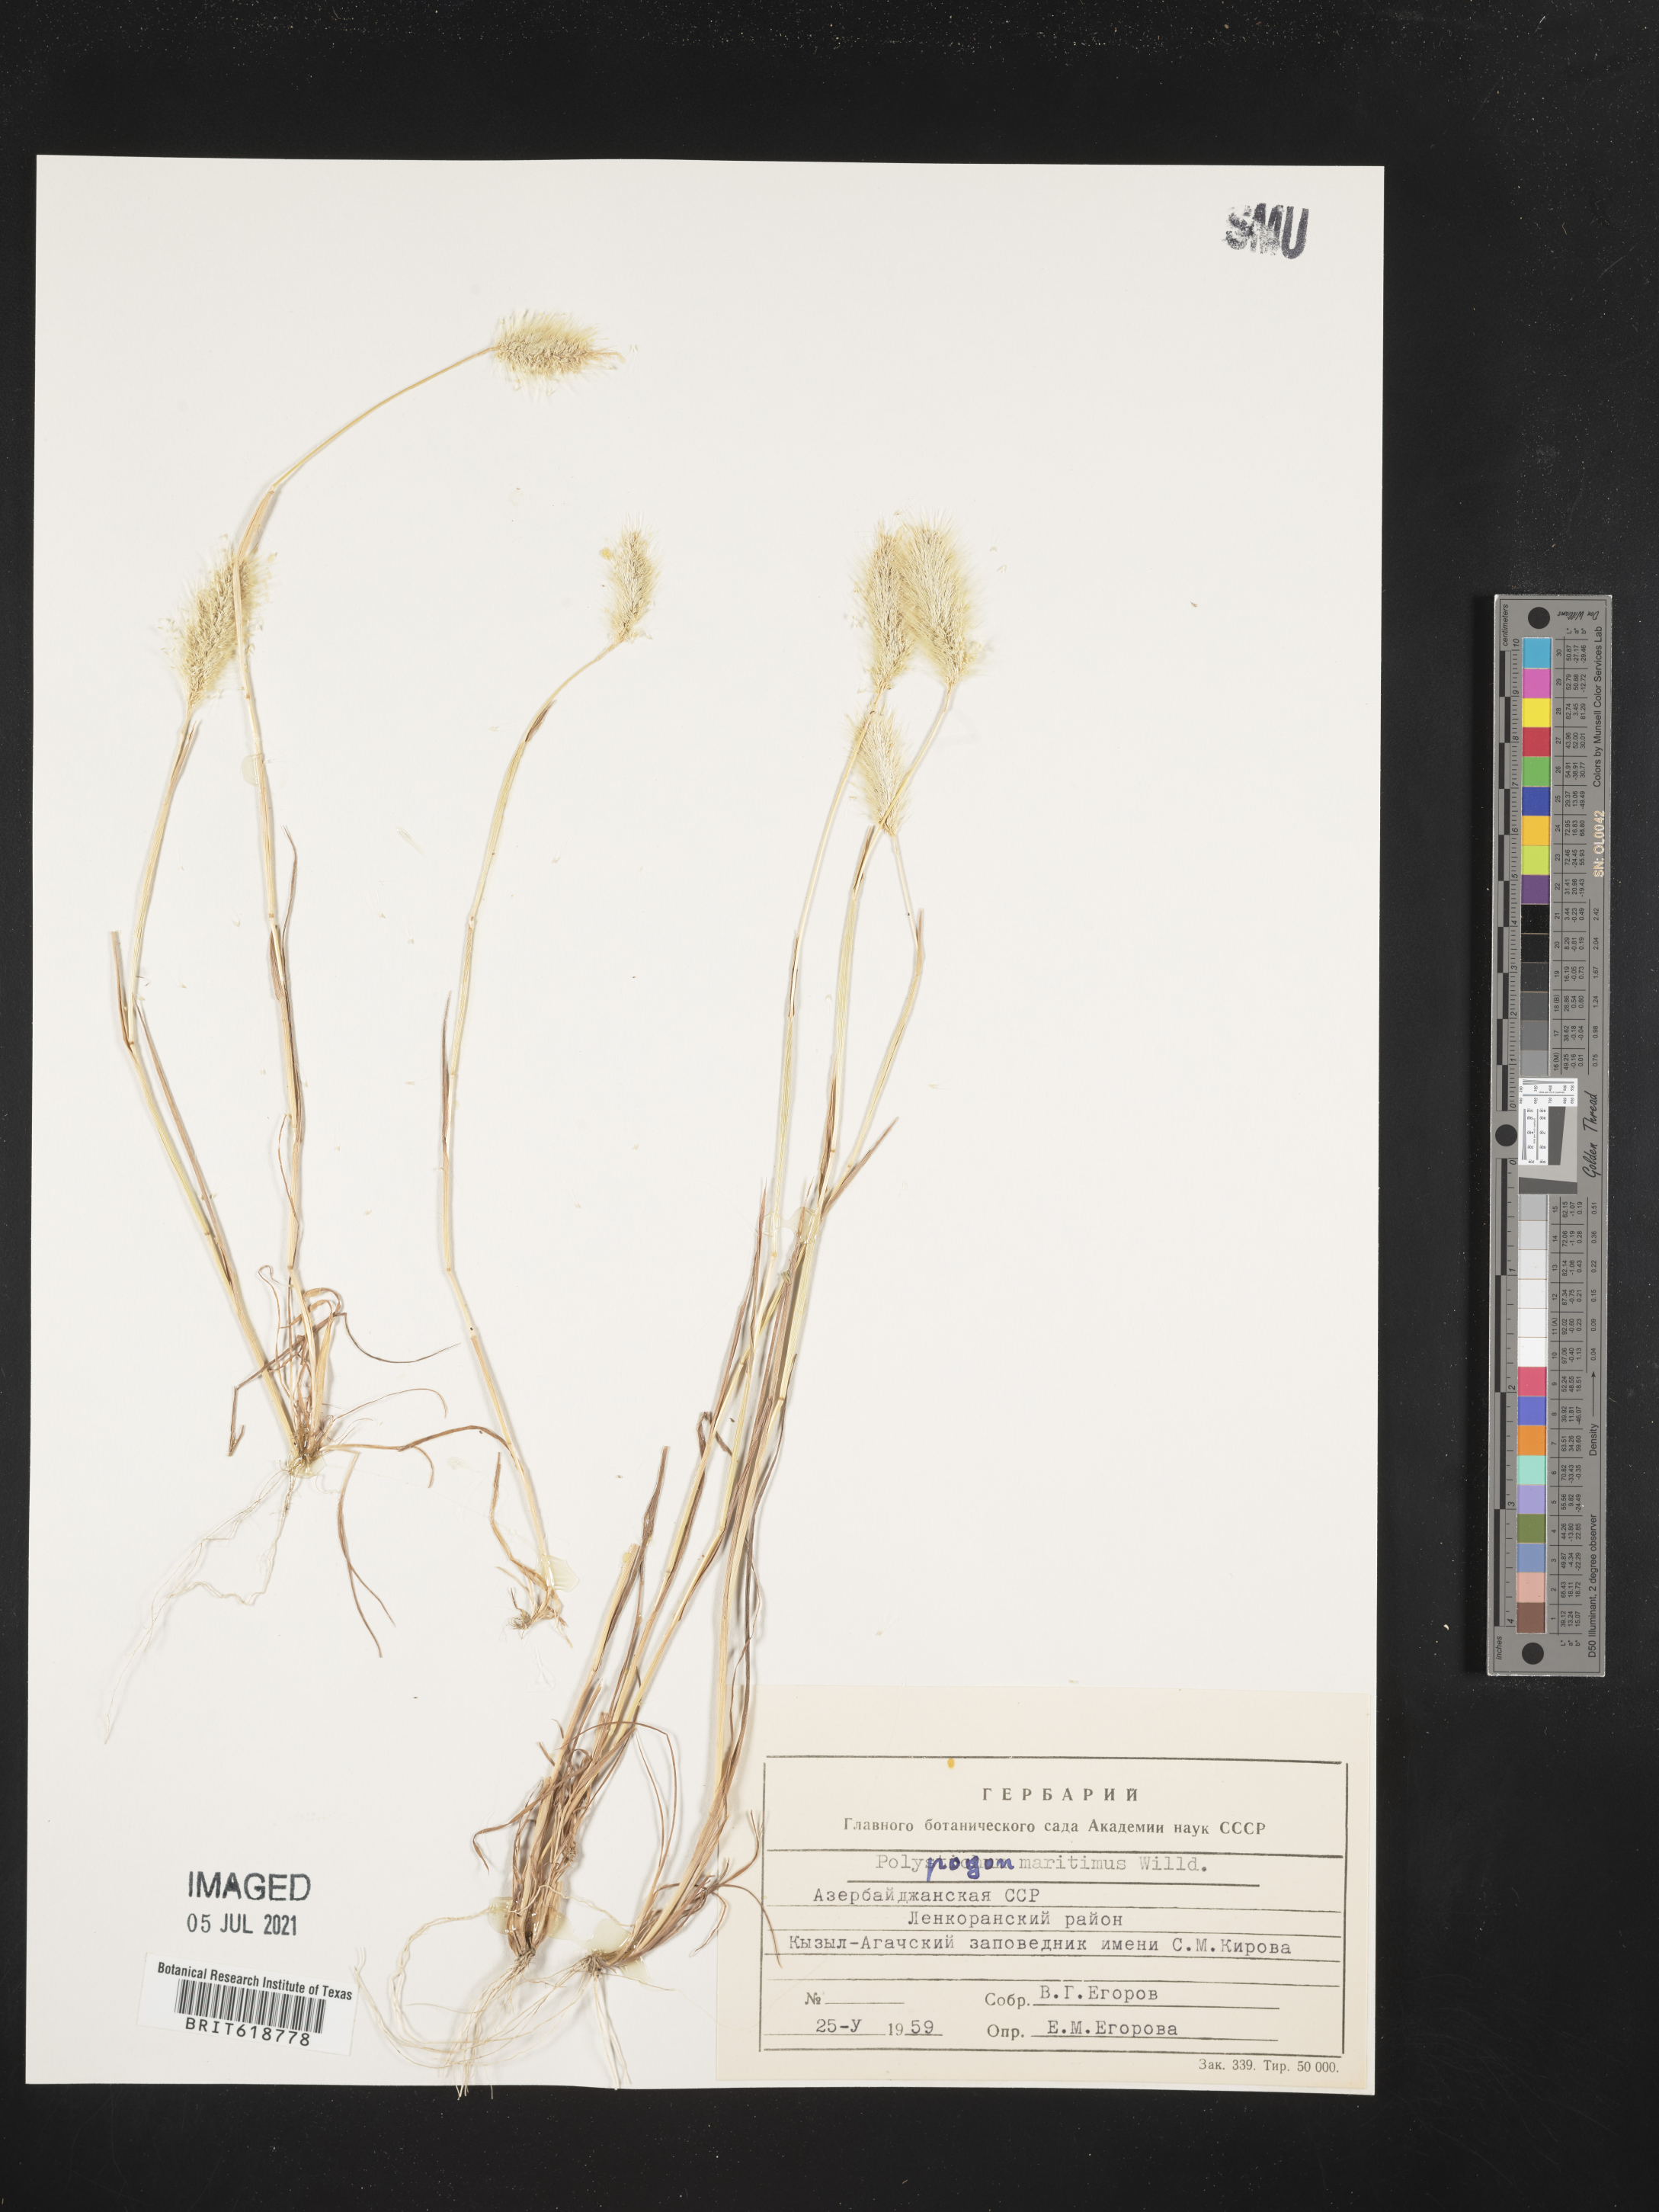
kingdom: Plantae
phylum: Tracheophyta
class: Liliopsida
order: Poales
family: Poaceae
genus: Polypogon
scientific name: Polypogon maritimus
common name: Mediterranean rabbitsfoot grass
